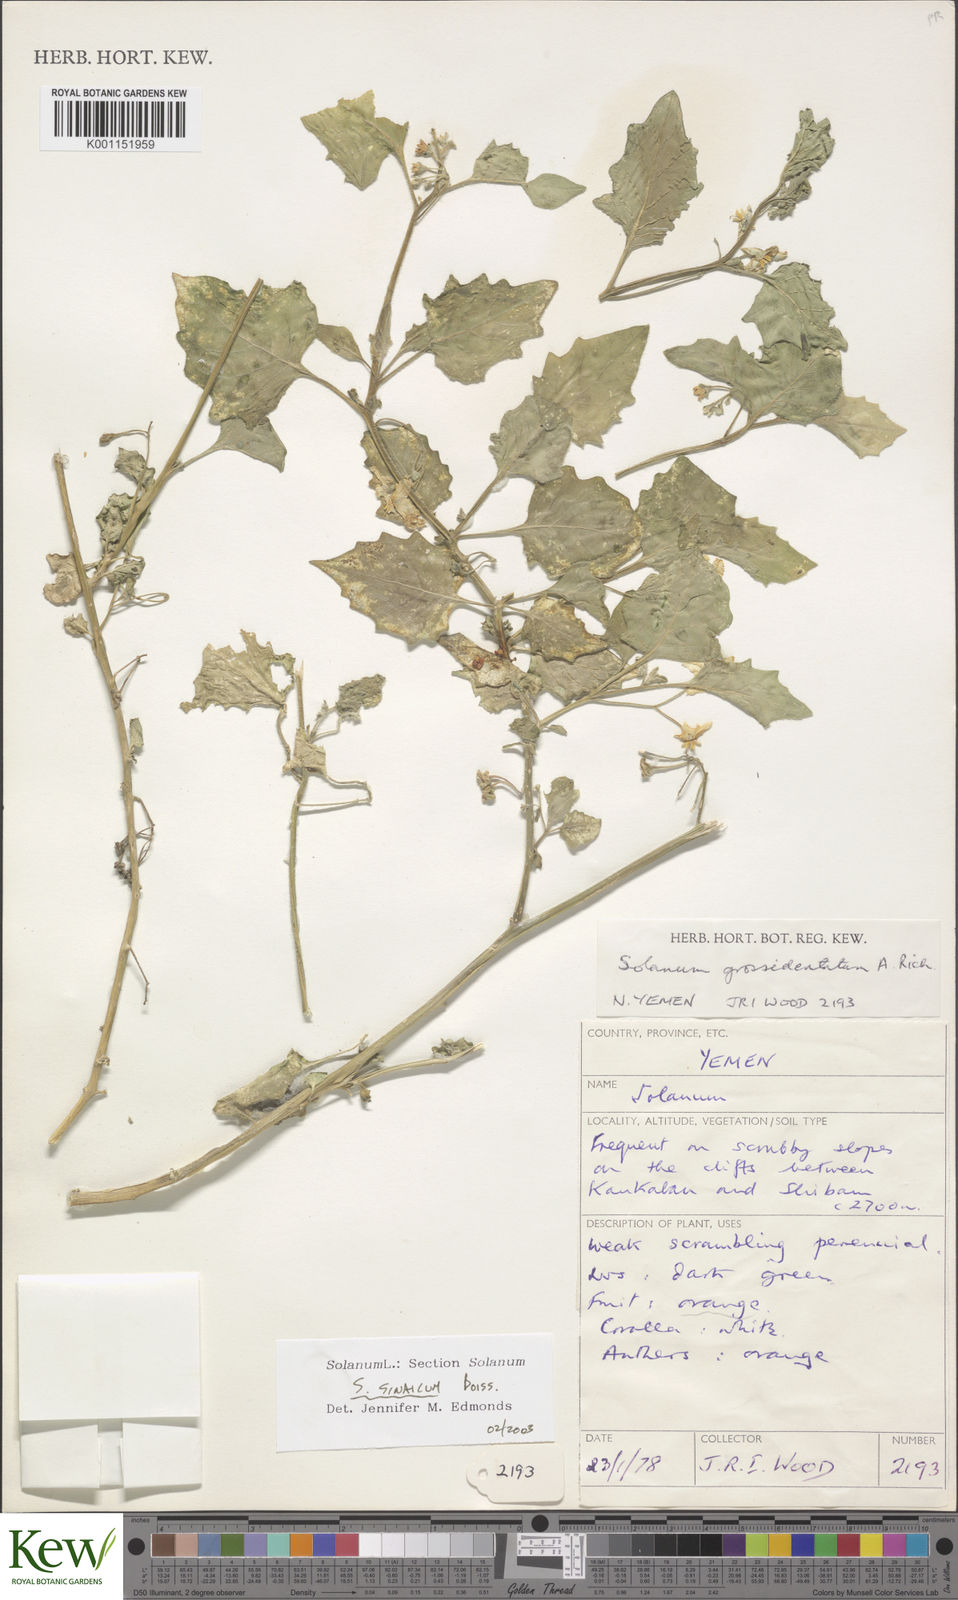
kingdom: Plantae
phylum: Tracheophyta
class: Magnoliopsida
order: Solanales
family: Solanaceae
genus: Solanum
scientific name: Solanum villosum
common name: Red nightshade
